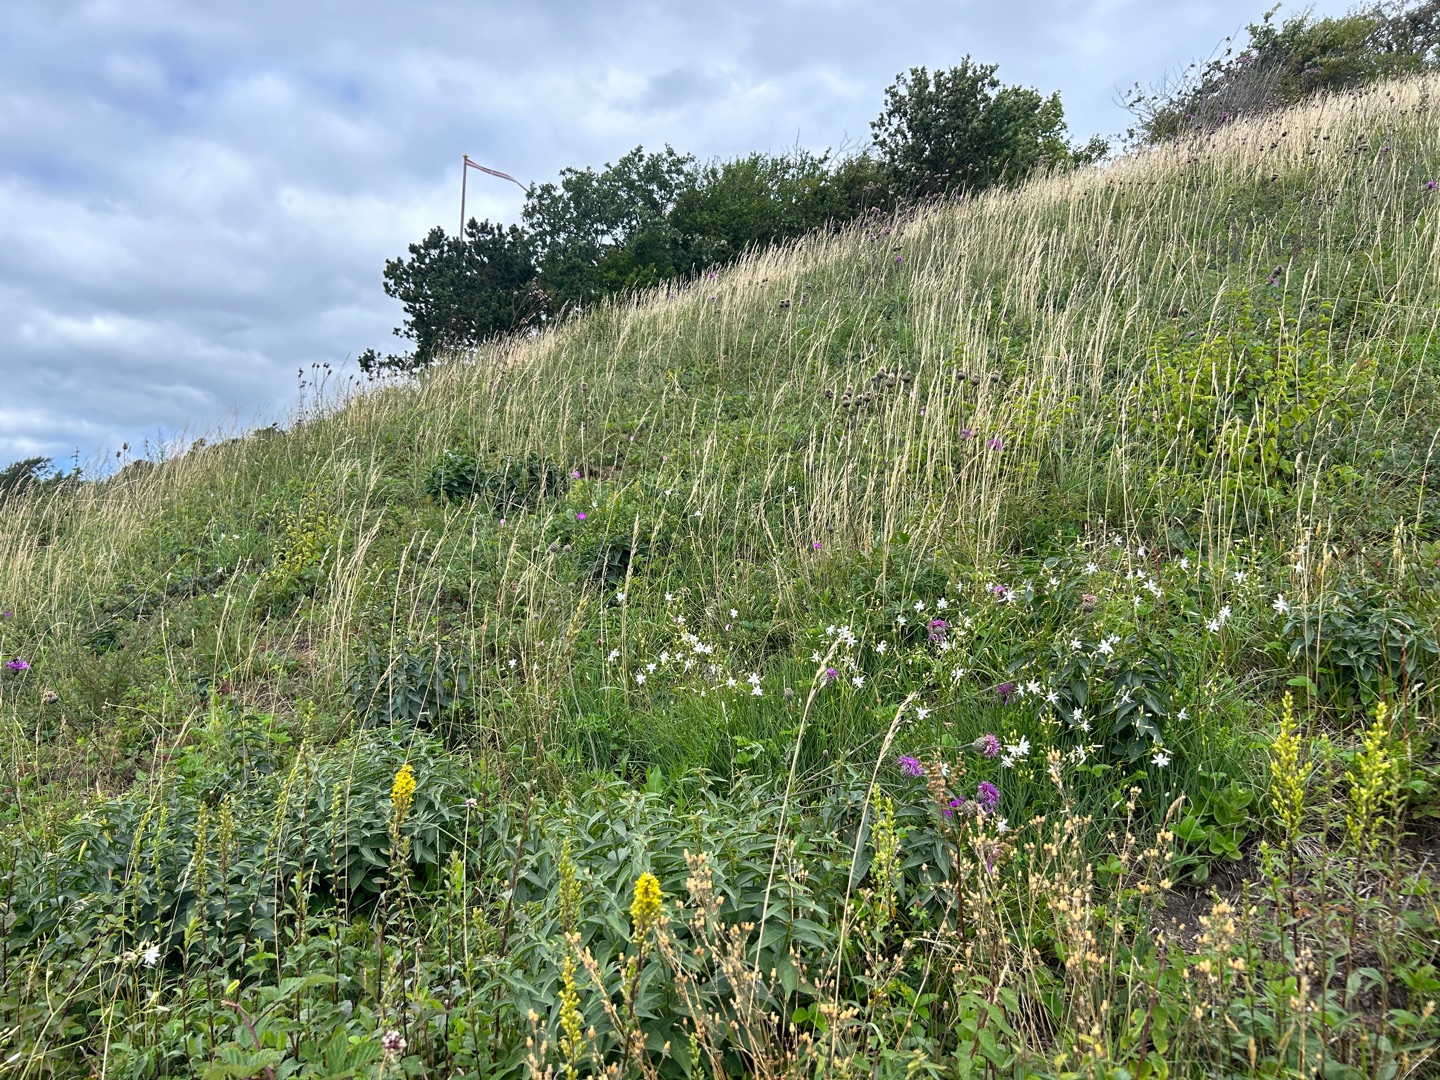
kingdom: Plantae
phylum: Tracheophyta
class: Liliopsida
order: Asparagales
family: Asparagaceae
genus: Anthericum
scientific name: Anthericum ramosum
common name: Grenet edderkopurt
